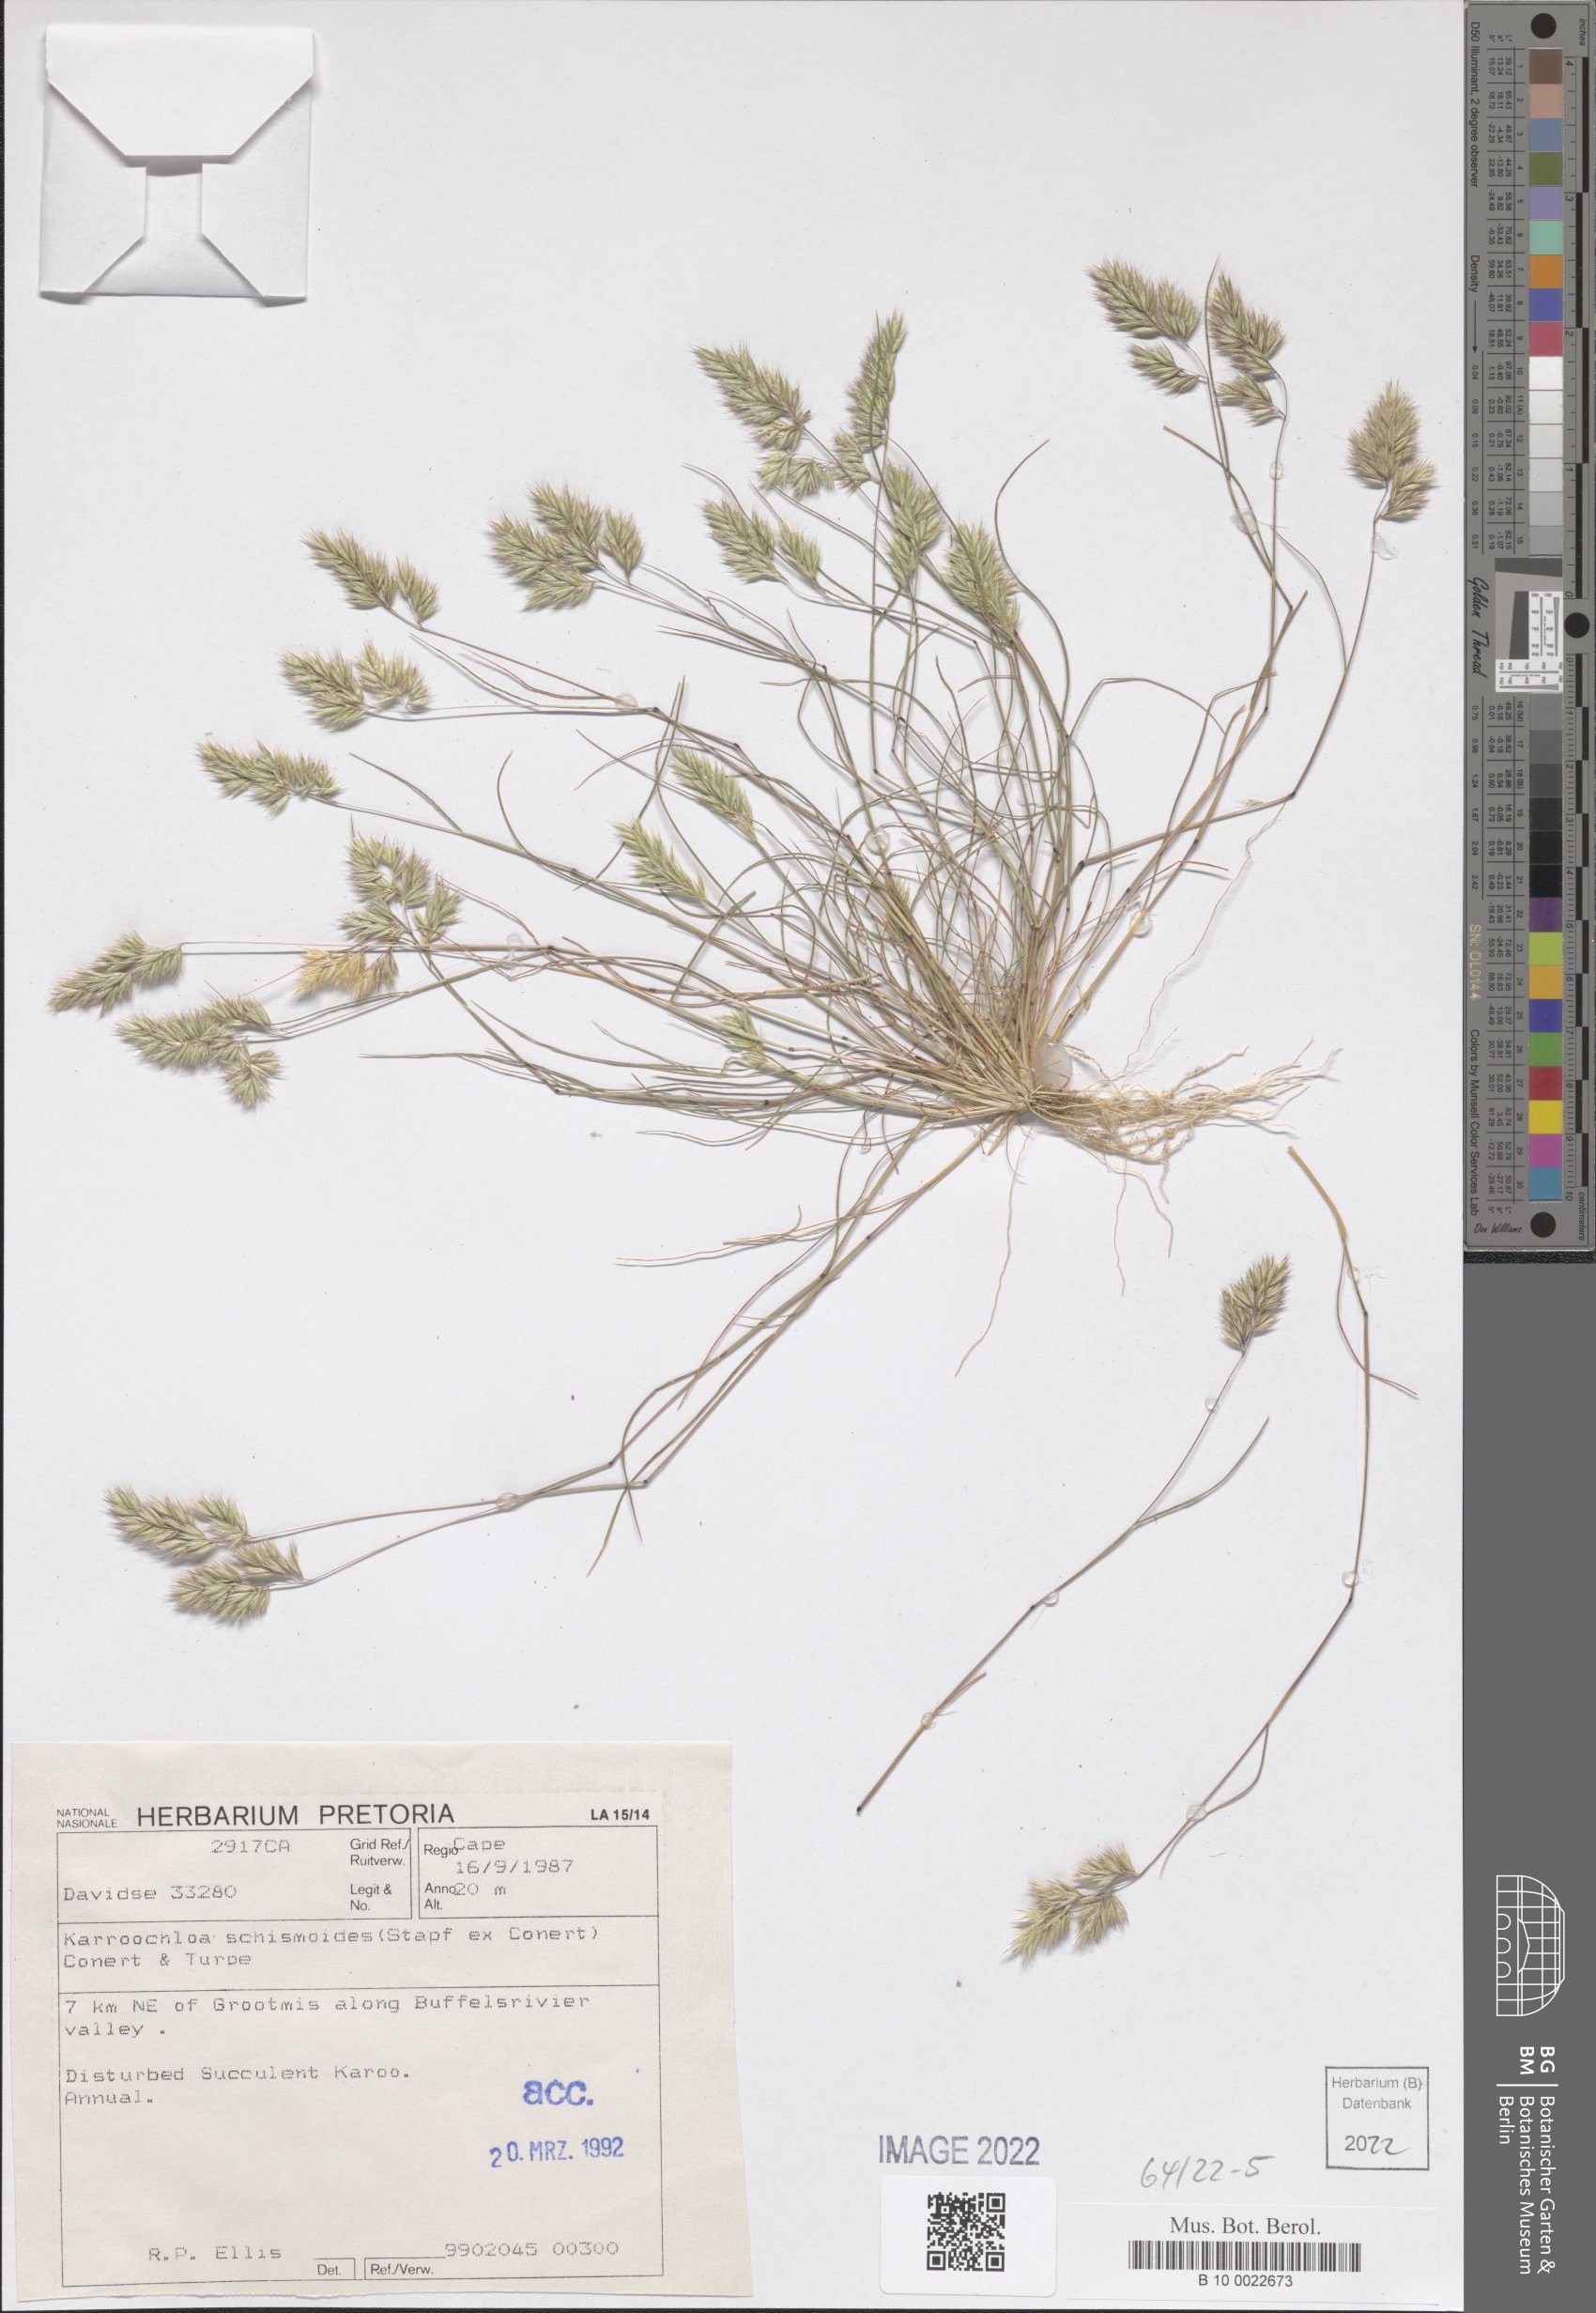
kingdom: Plantae
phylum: Tracheophyta
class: Liliopsida
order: Poales
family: Poaceae
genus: Schismus
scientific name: Schismus schismoides
